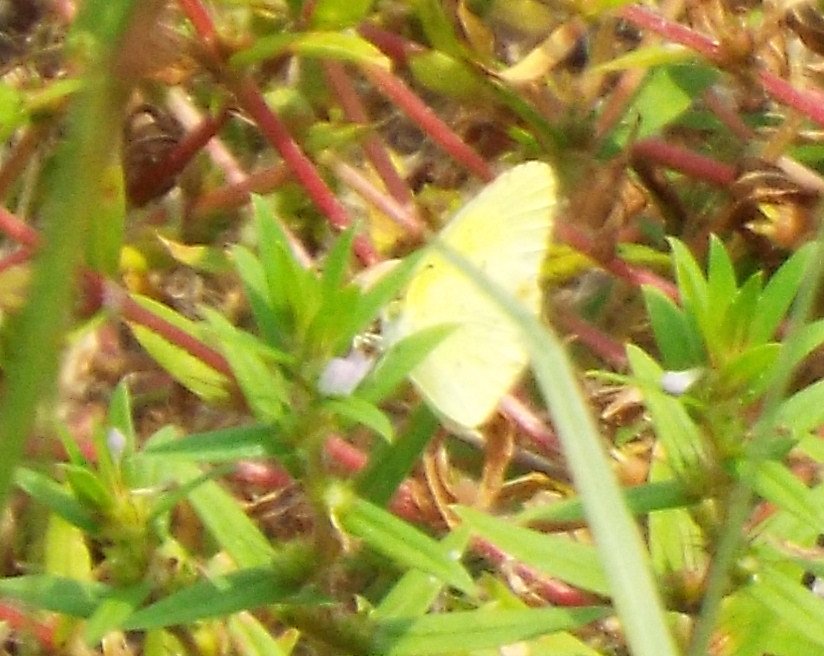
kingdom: Animalia
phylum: Arthropoda
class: Insecta
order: Lepidoptera
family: Pieridae
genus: Pyrisitia
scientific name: Pyrisitia lisa
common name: Little Yellow
